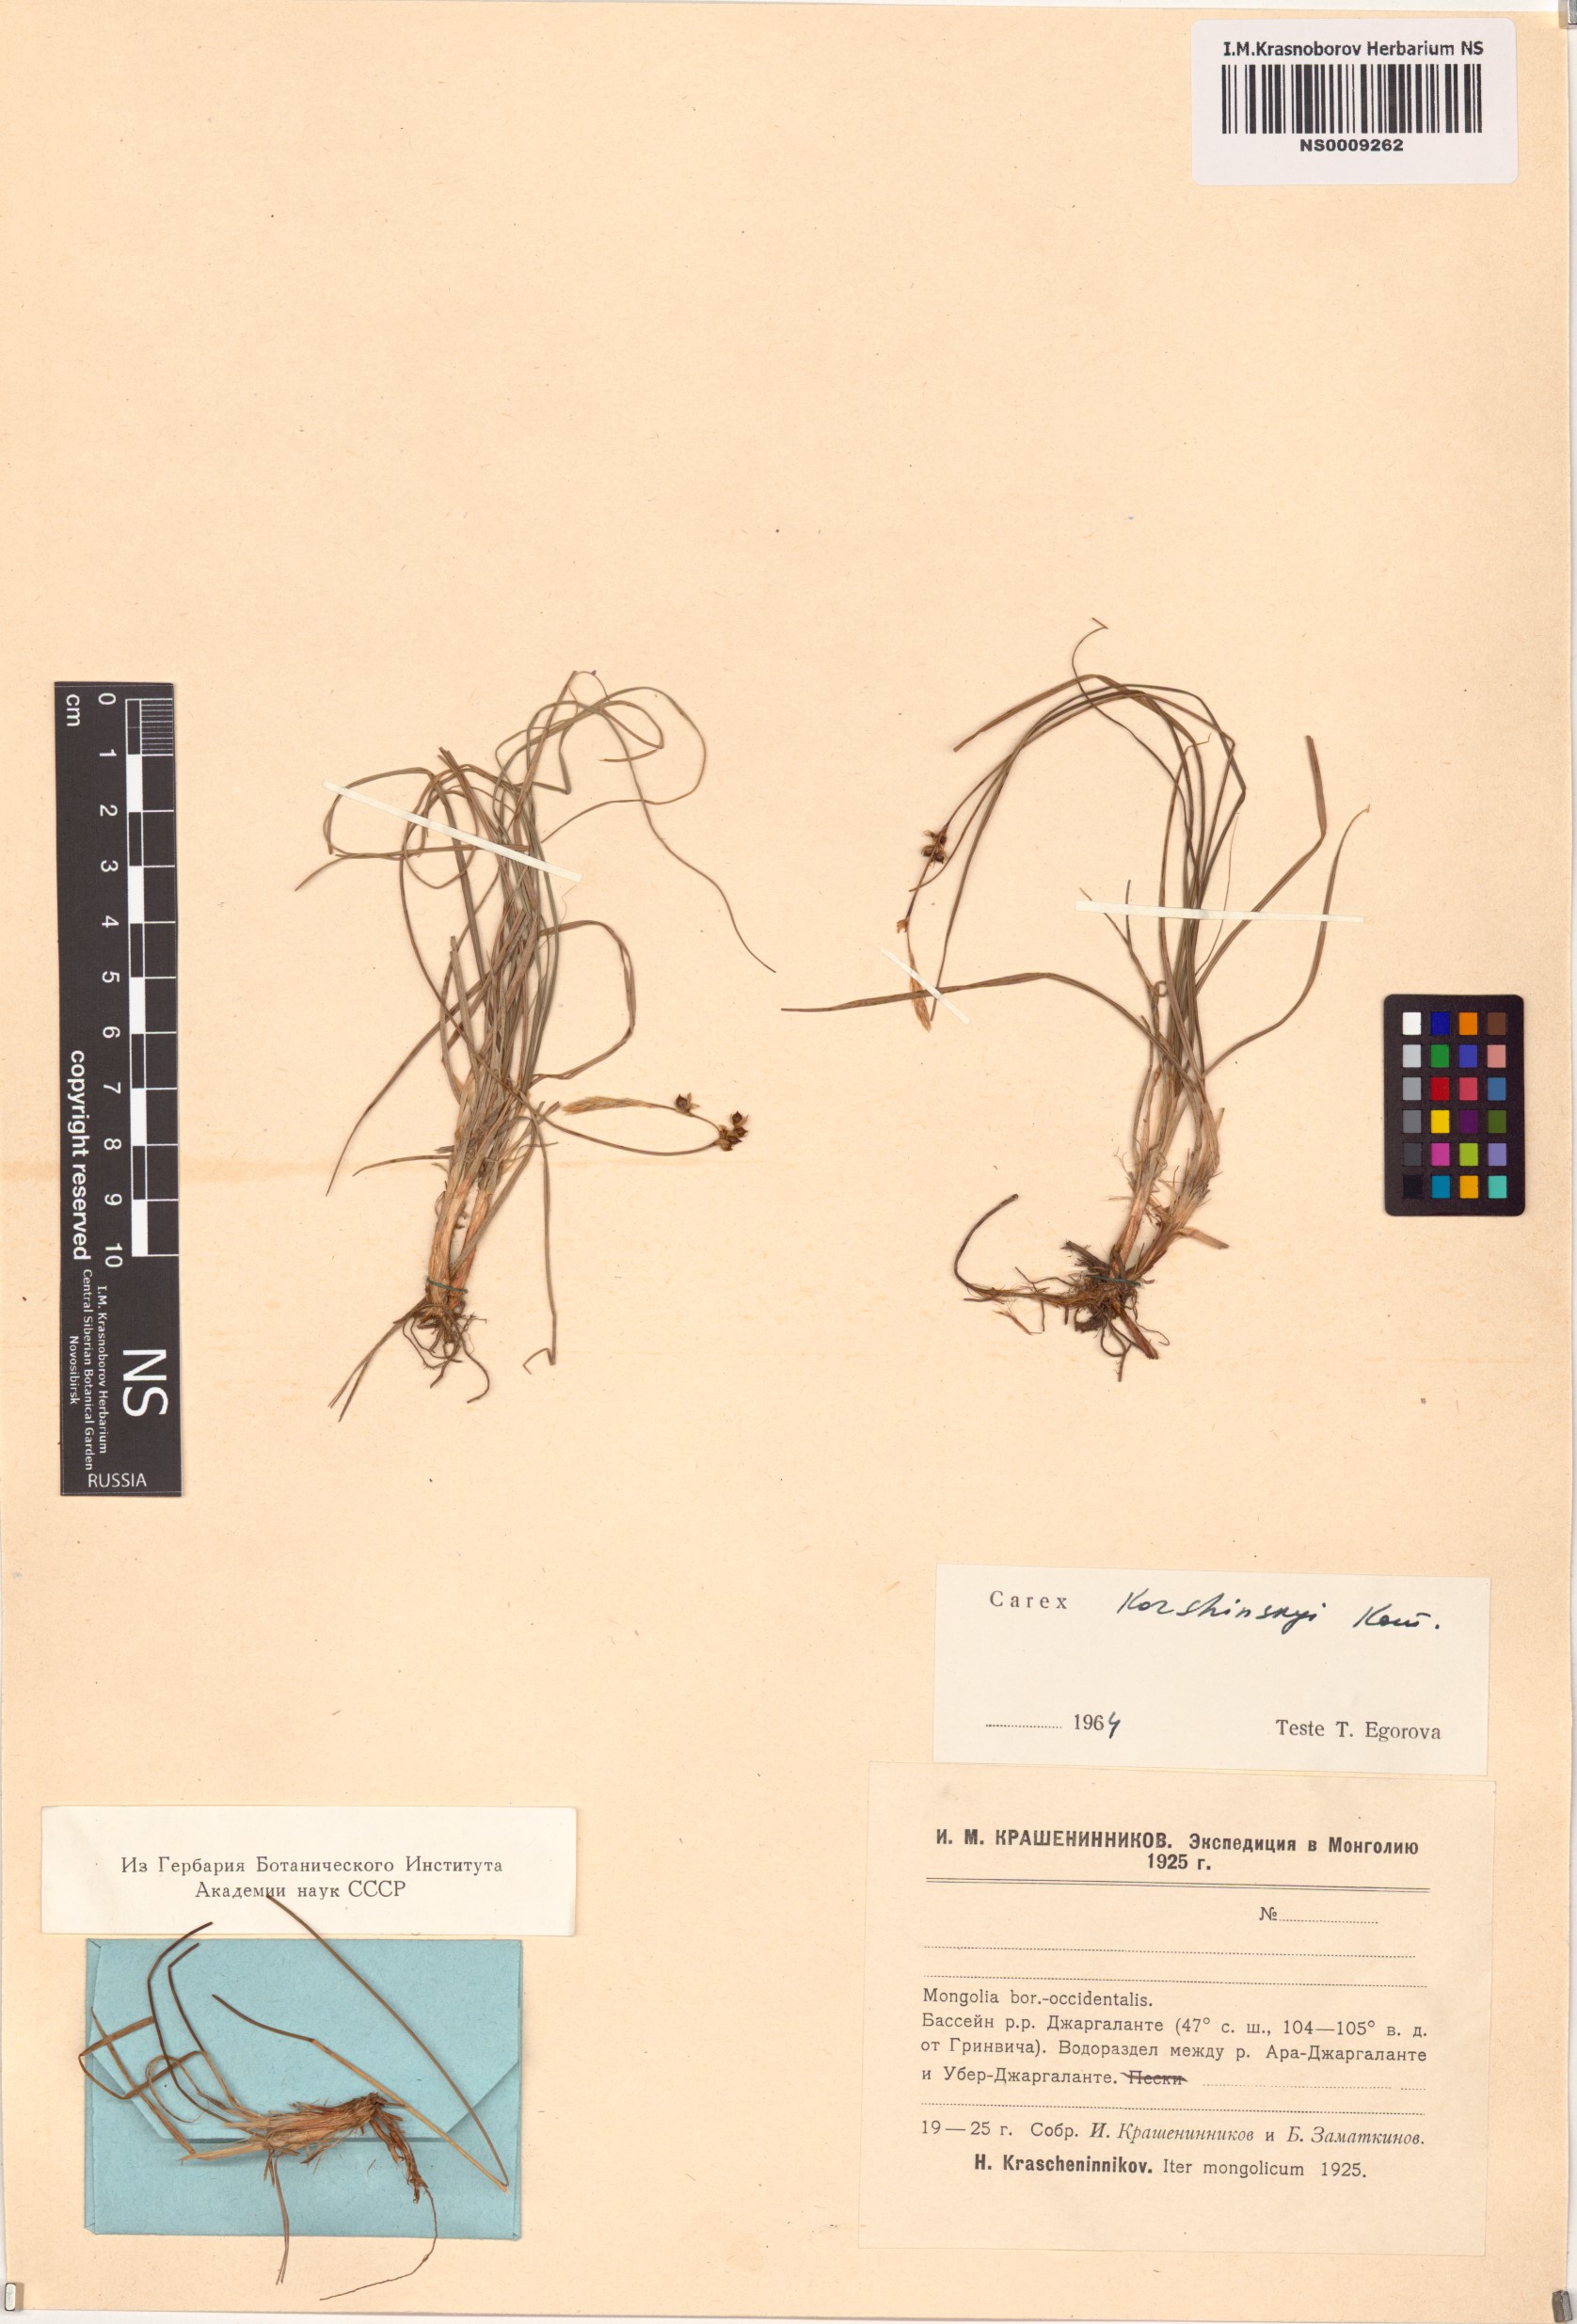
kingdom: Plantae
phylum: Tracheophyta
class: Liliopsida
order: Poales
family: Cyperaceae
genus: Carex
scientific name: Carex korshinskyi
